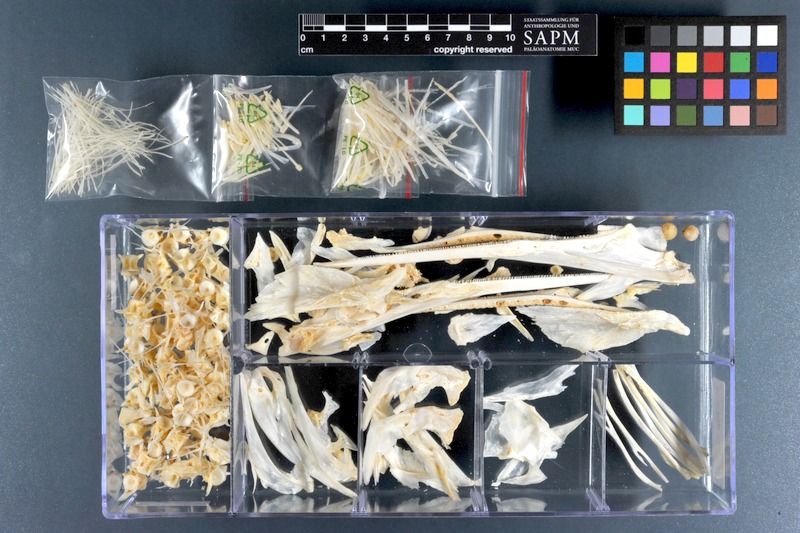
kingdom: Animalia
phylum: Chordata
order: Beloniformes
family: Belonidae
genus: Ablennes
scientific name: Ablennes hians
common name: Flat needlefish
